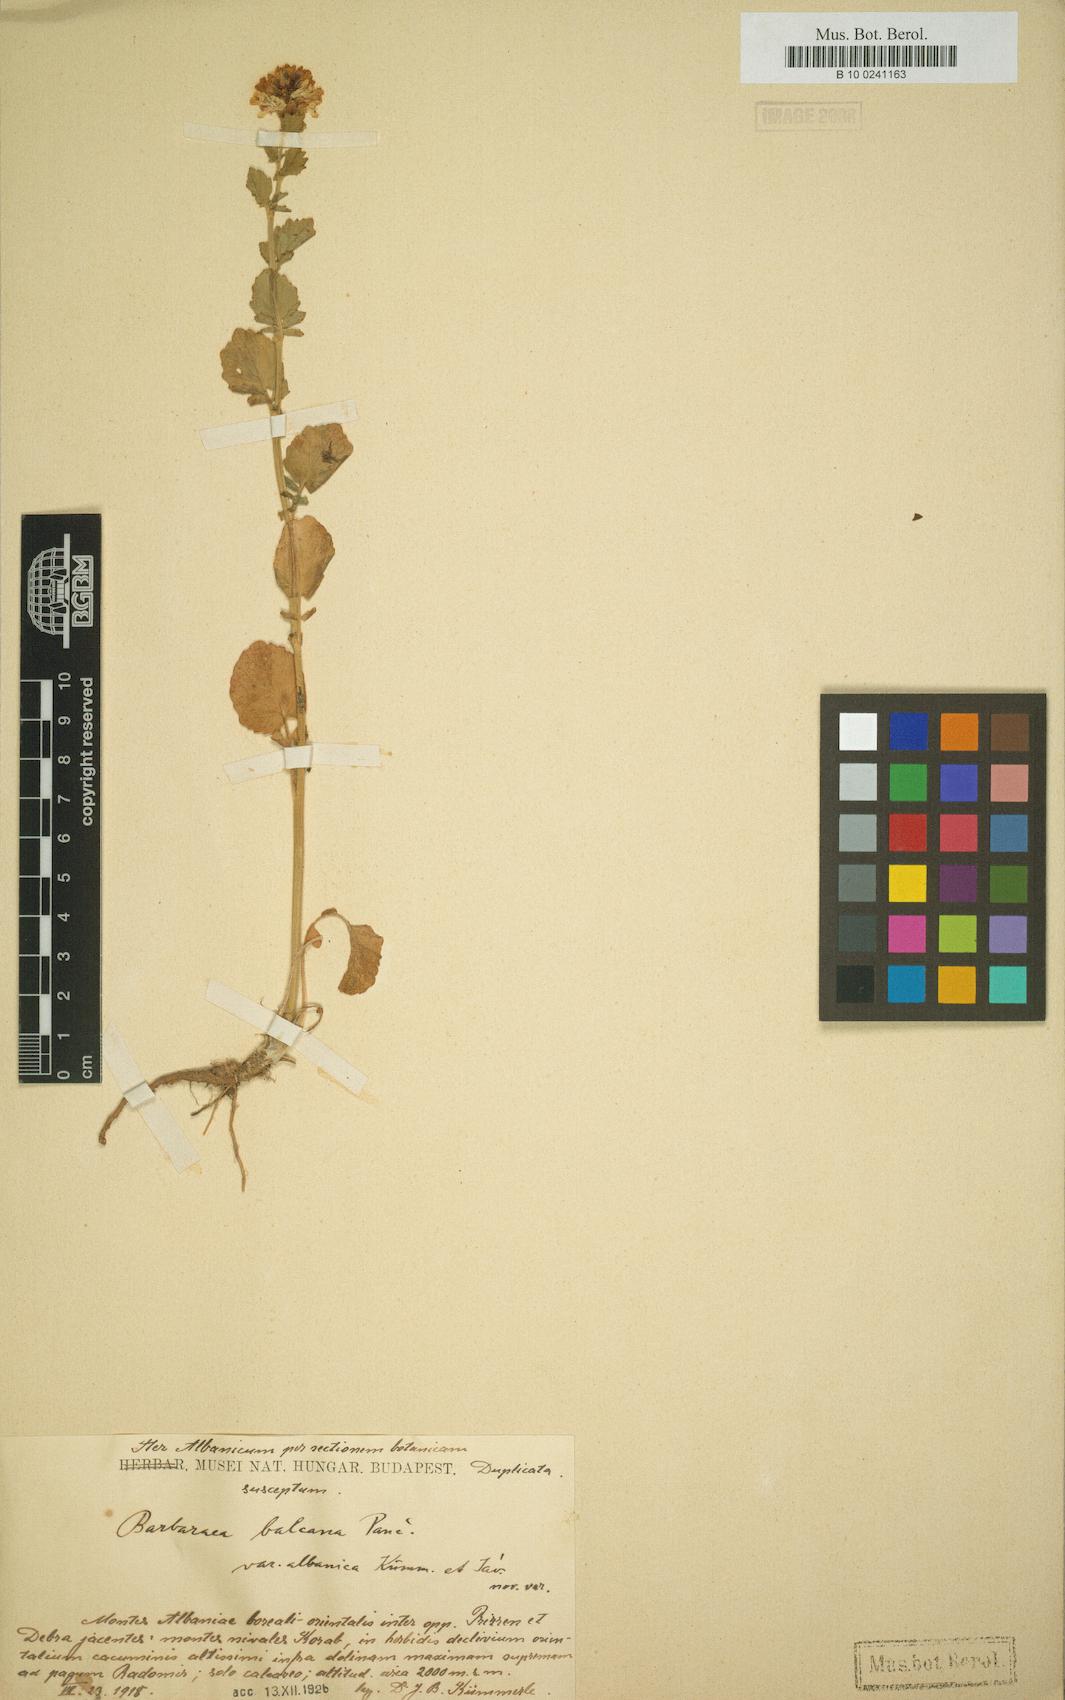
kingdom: Plantae
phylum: Tracheophyta
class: Magnoliopsida
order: Brassicales
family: Brassicaceae
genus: Barbarea
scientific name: Barbarea balcana
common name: Balkan yellow rocket
